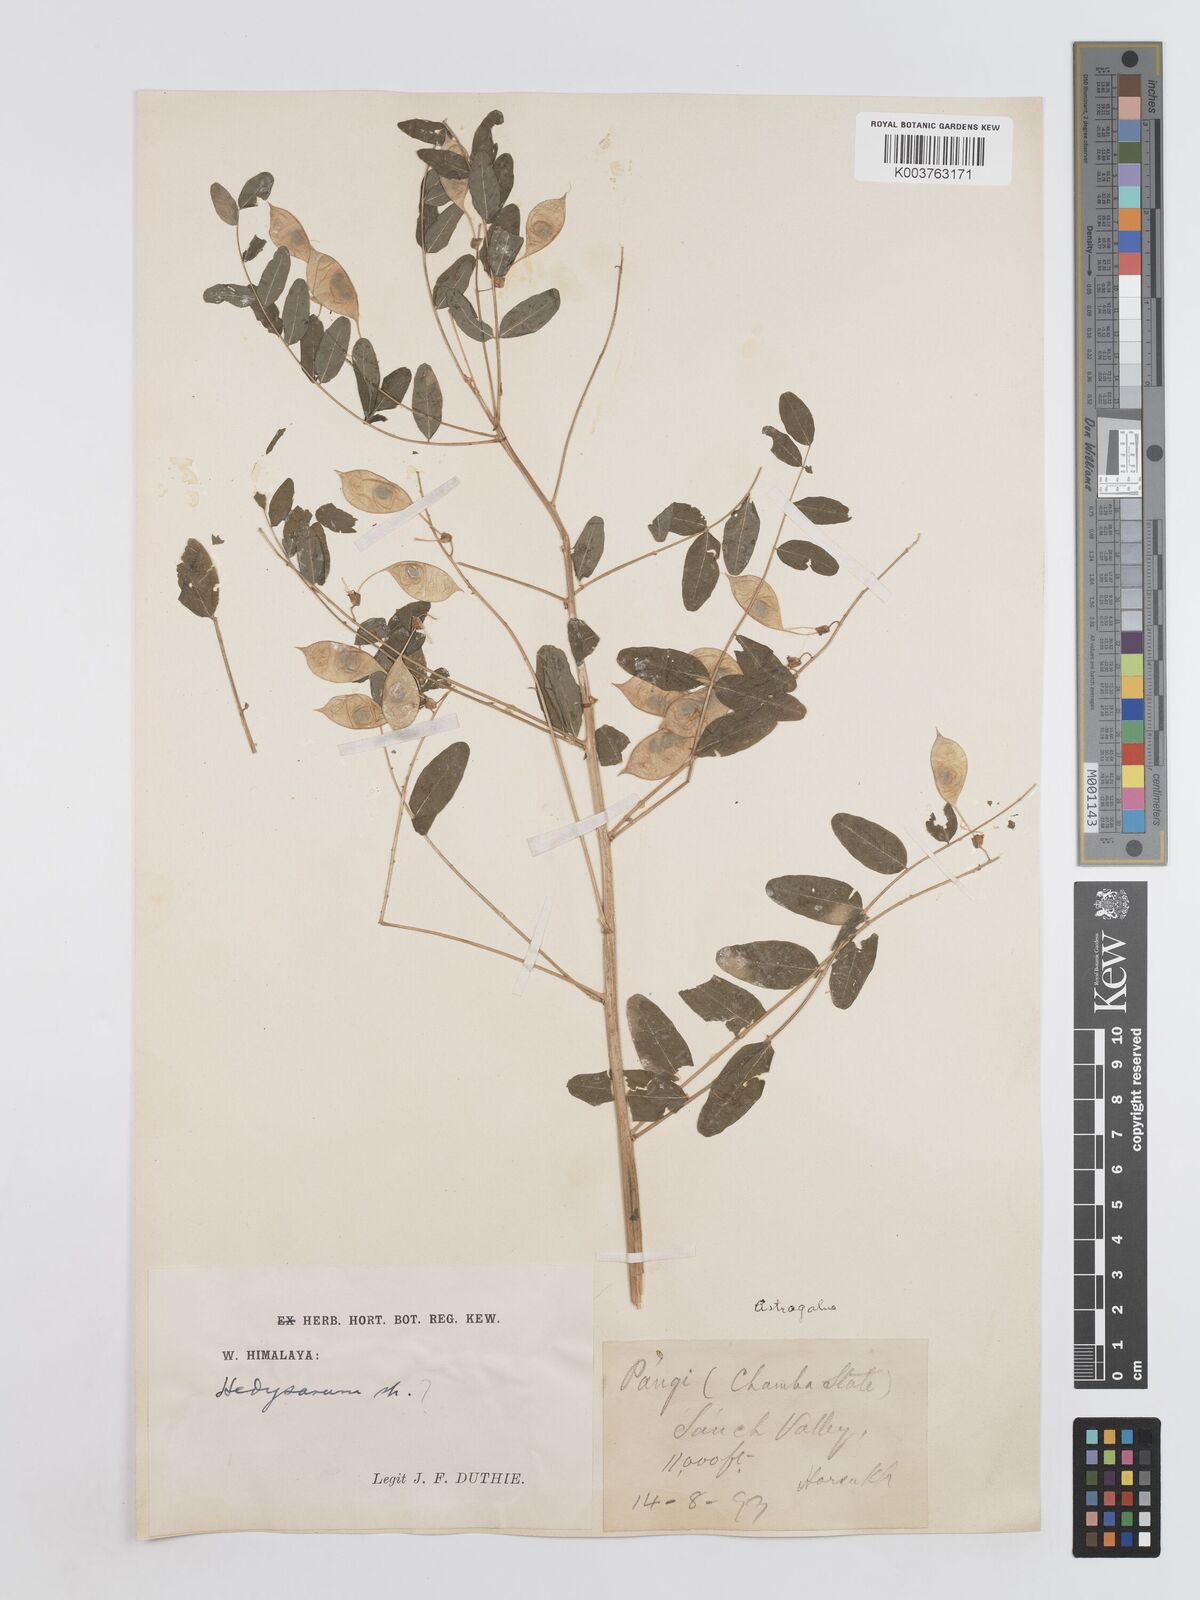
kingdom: Plantae
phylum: Tracheophyta
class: Magnoliopsida
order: Fabales
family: Fabaceae
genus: Hedysarum
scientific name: Hedysarum
